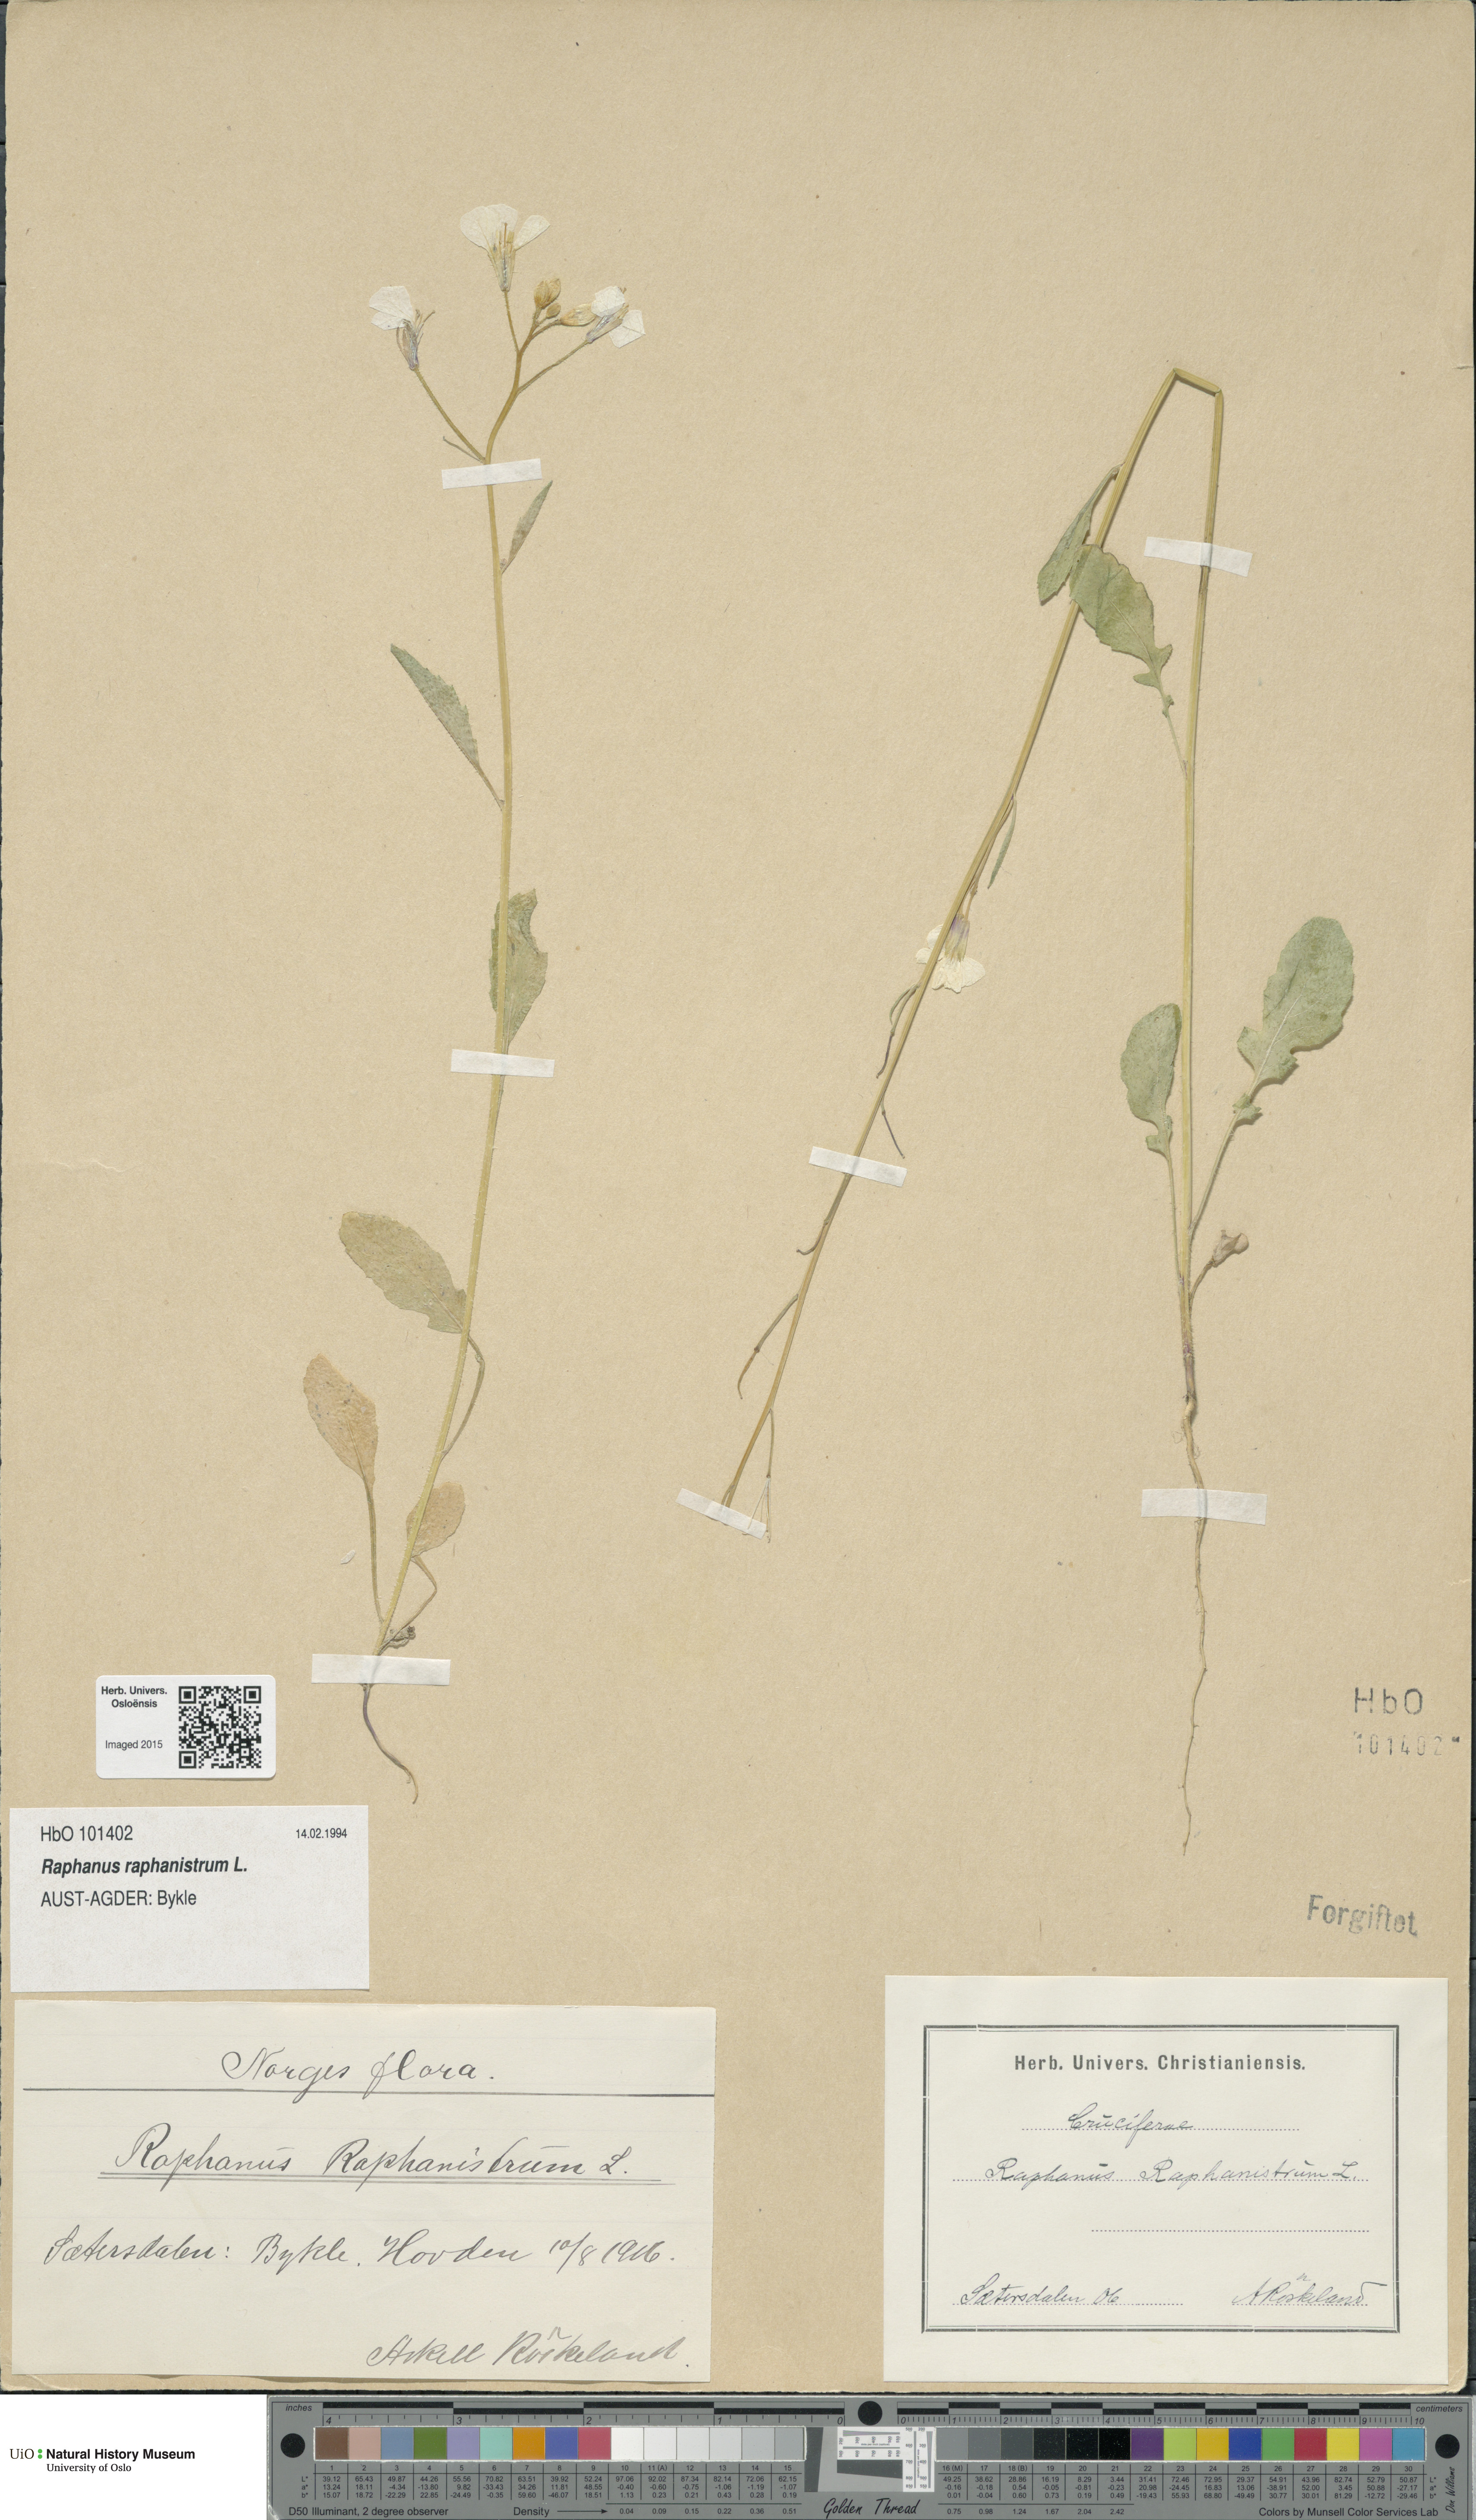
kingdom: Plantae
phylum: Tracheophyta
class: Magnoliopsida
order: Brassicales
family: Brassicaceae
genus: Raphanus
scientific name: Raphanus raphanistrum
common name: Wild radish
